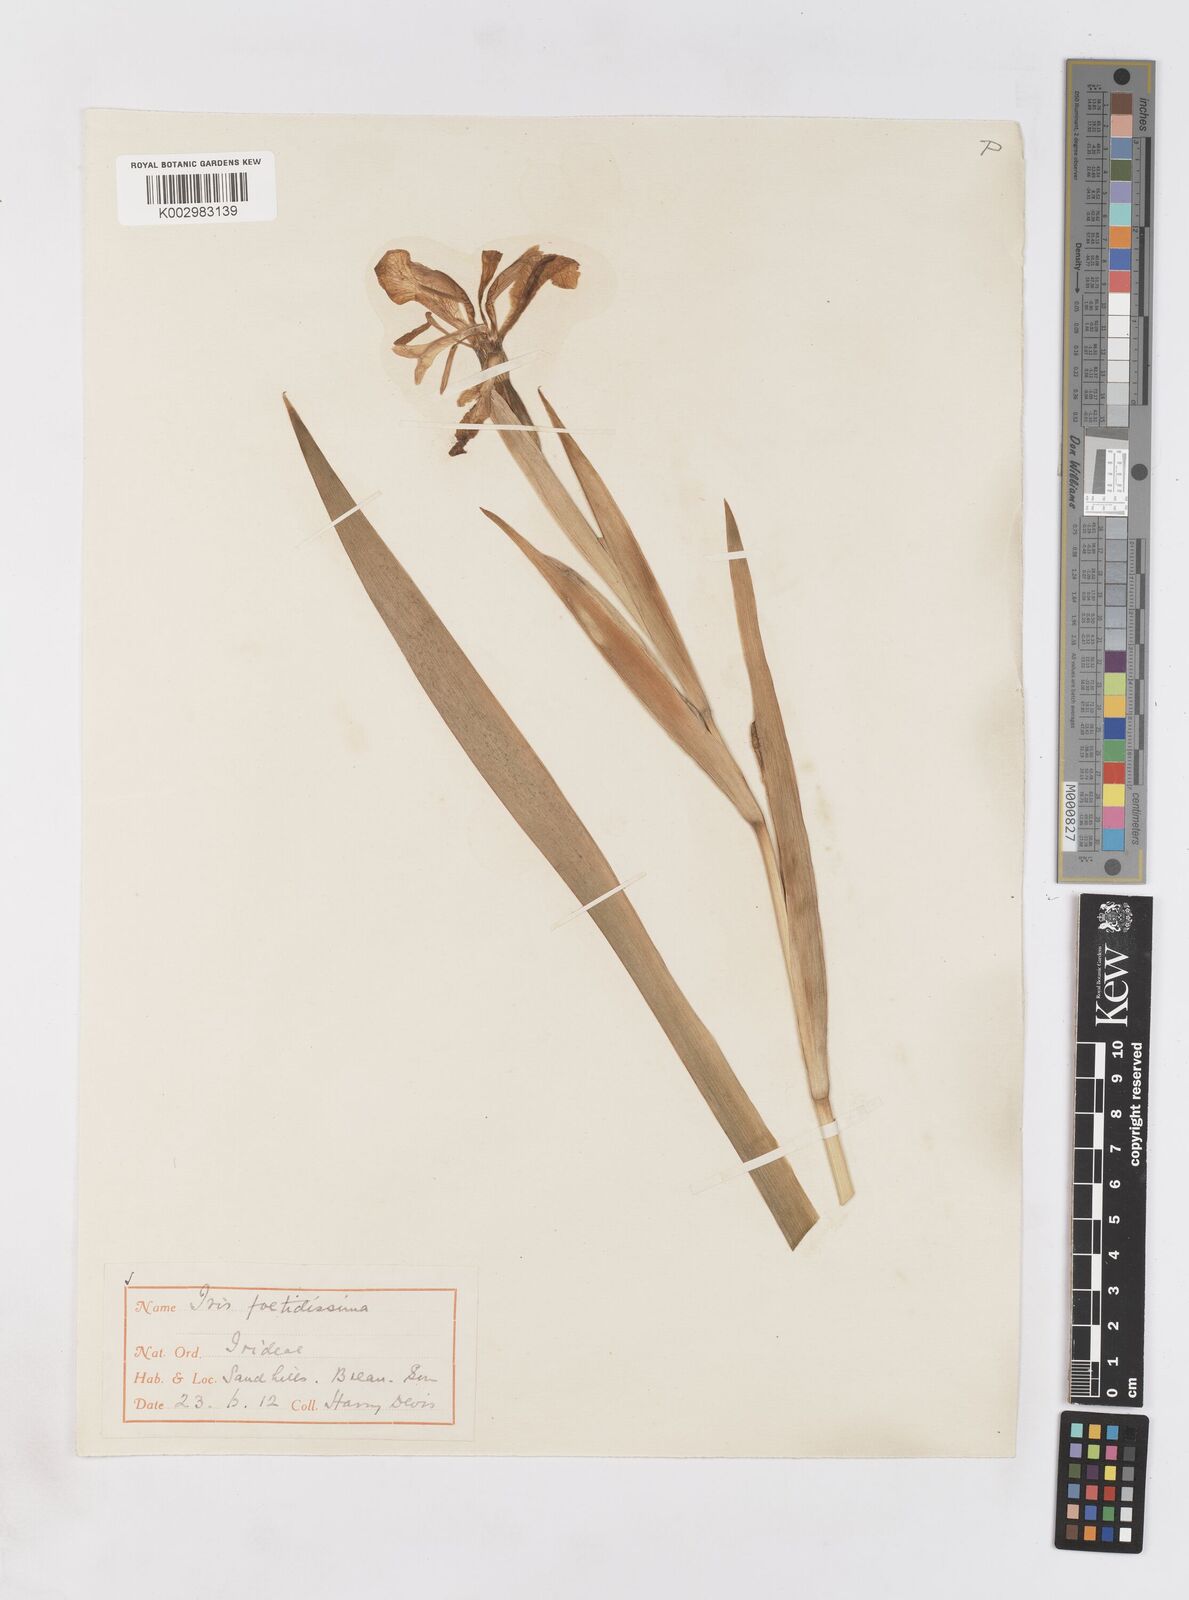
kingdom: Plantae
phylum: Tracheophyta
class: Liliopsida
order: Asparagales
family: Iridaceae
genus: Iris
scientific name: Iris foetidissima
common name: Stinking iris
